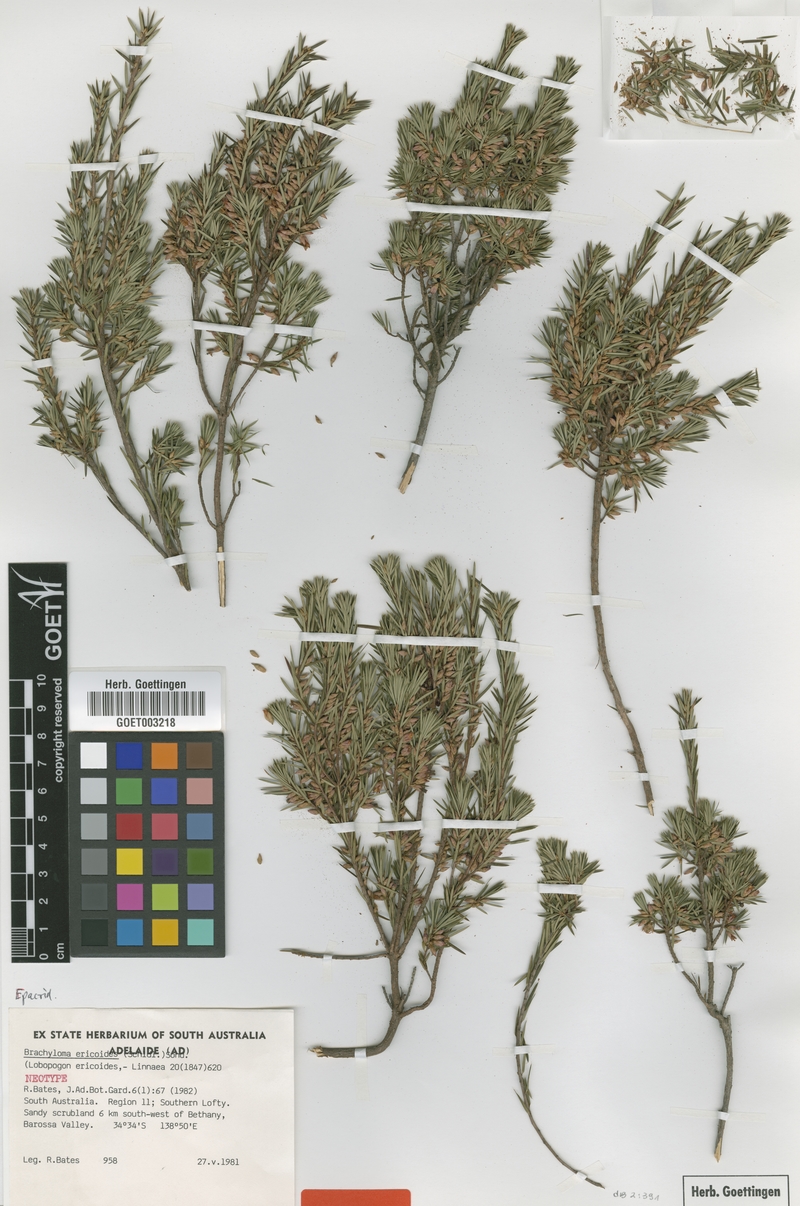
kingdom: Plantae
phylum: Tracheophyta
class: Magnoliopsida
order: Ericales
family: Ericaceae
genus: Brachyloma
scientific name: Brachyloma ericoides
